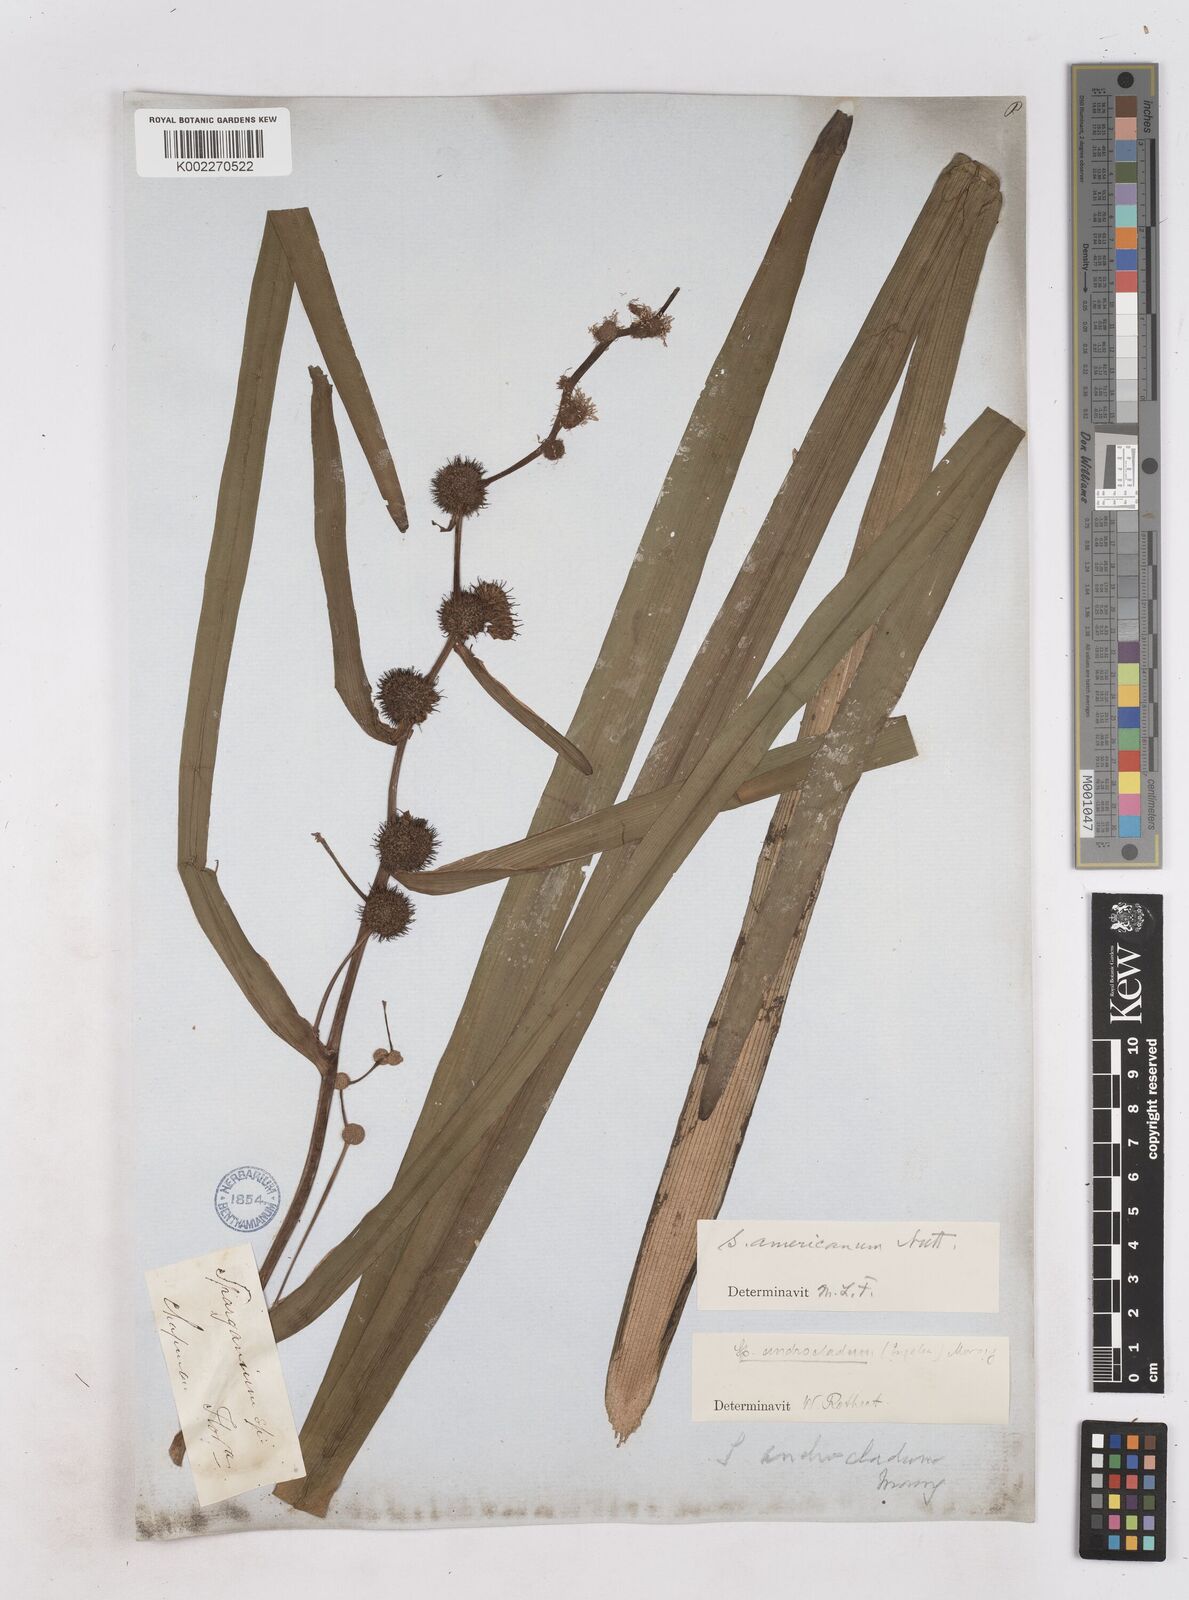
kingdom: Plantae
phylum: Tracheophyta
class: Liliopsida
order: Poales
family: Typhaceae
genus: Sparganium
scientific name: Sparganium americanum
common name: American burreed
